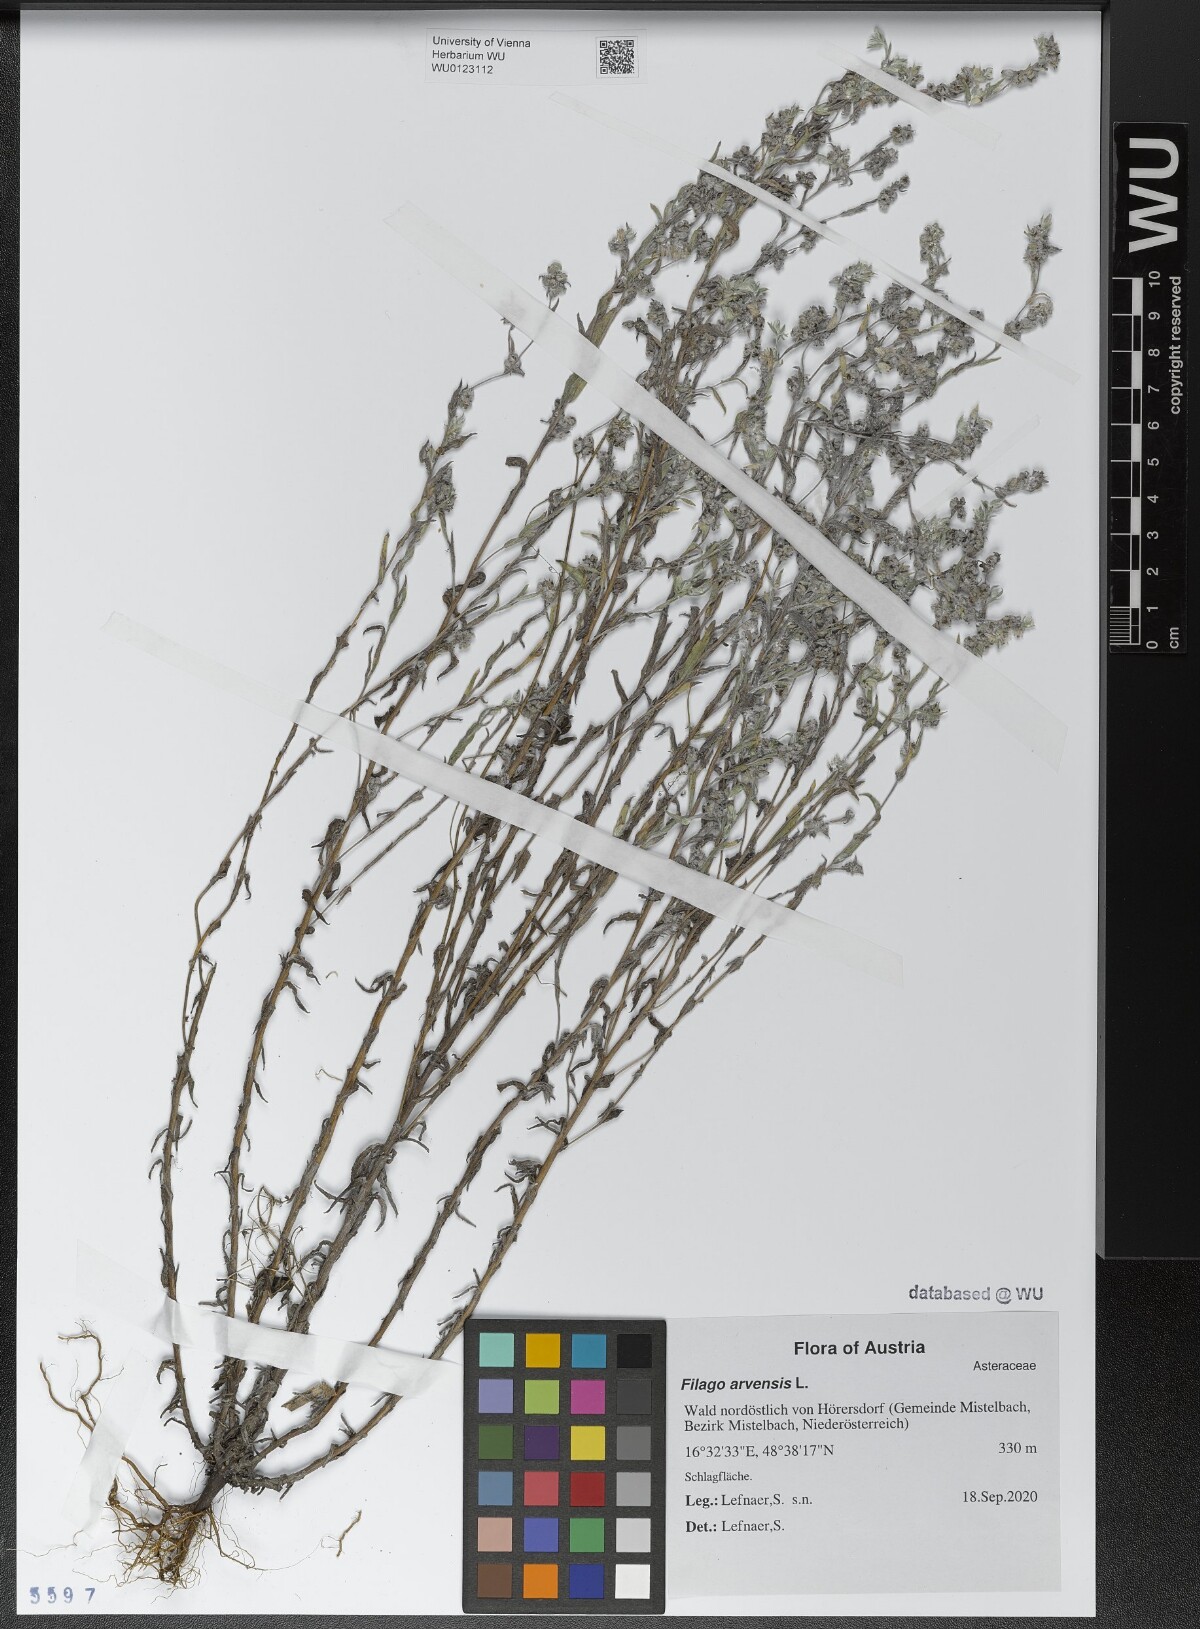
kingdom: Plantae
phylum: Tracheophyta
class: Magnoliopsida
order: Asterales
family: Asteraceae
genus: Filago
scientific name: Filago arvensis
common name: Field cudweed
